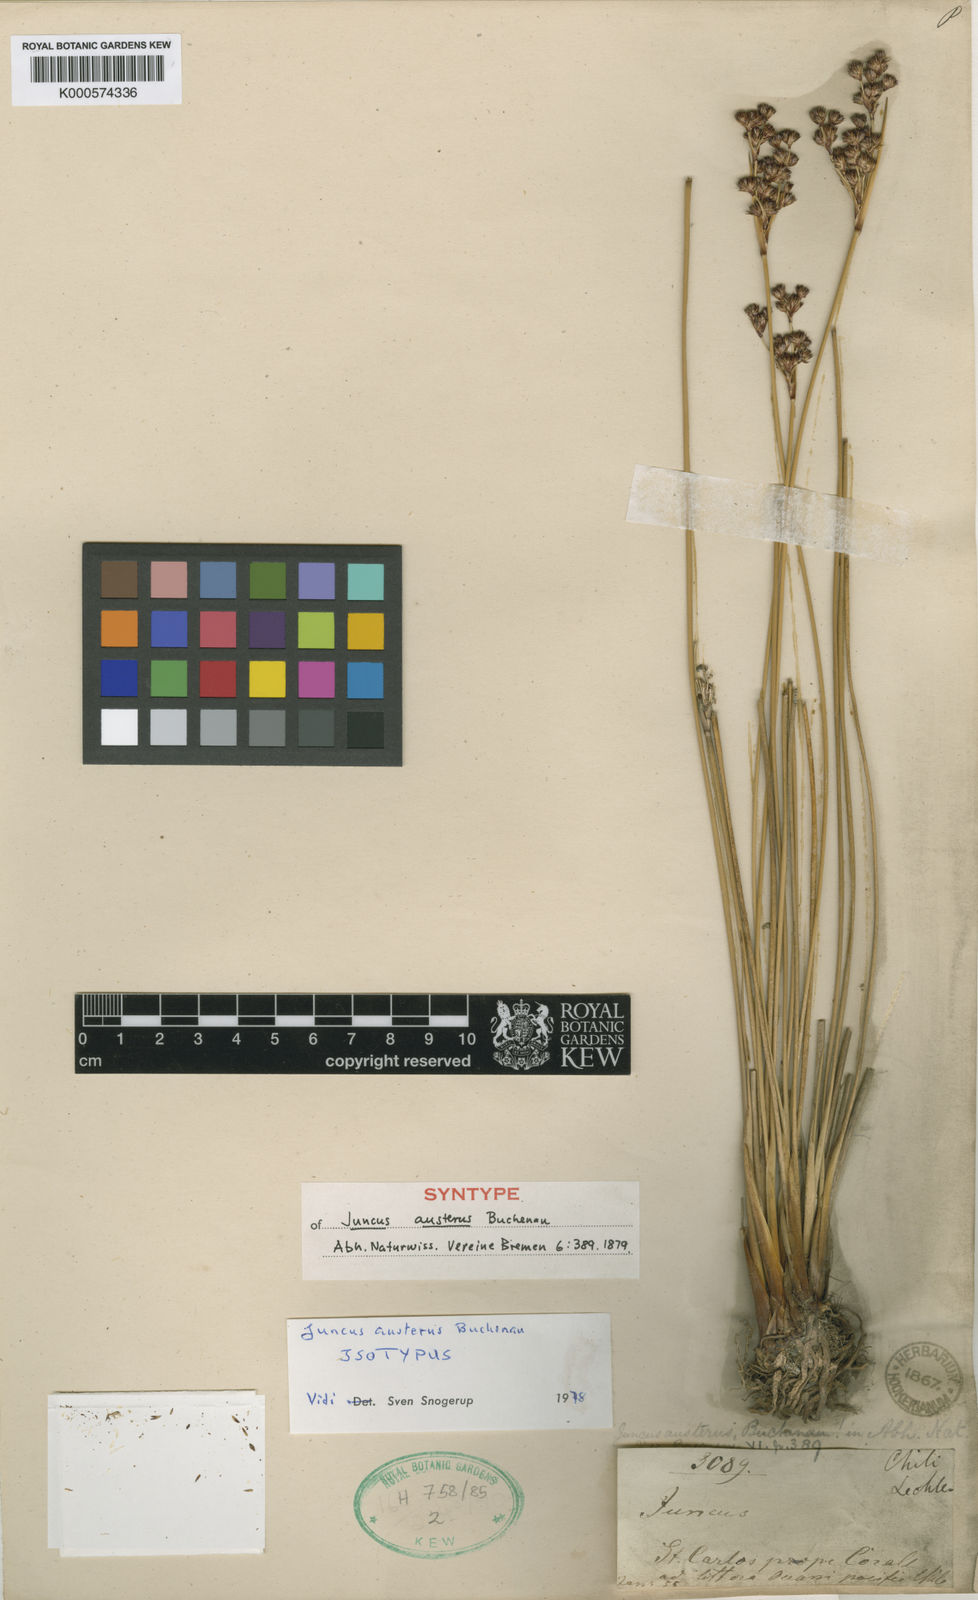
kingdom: Plantae
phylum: Tracheophyta
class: Liliopsida
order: Poales
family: Juncaceae
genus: Juncus
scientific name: Juncus kraussii
